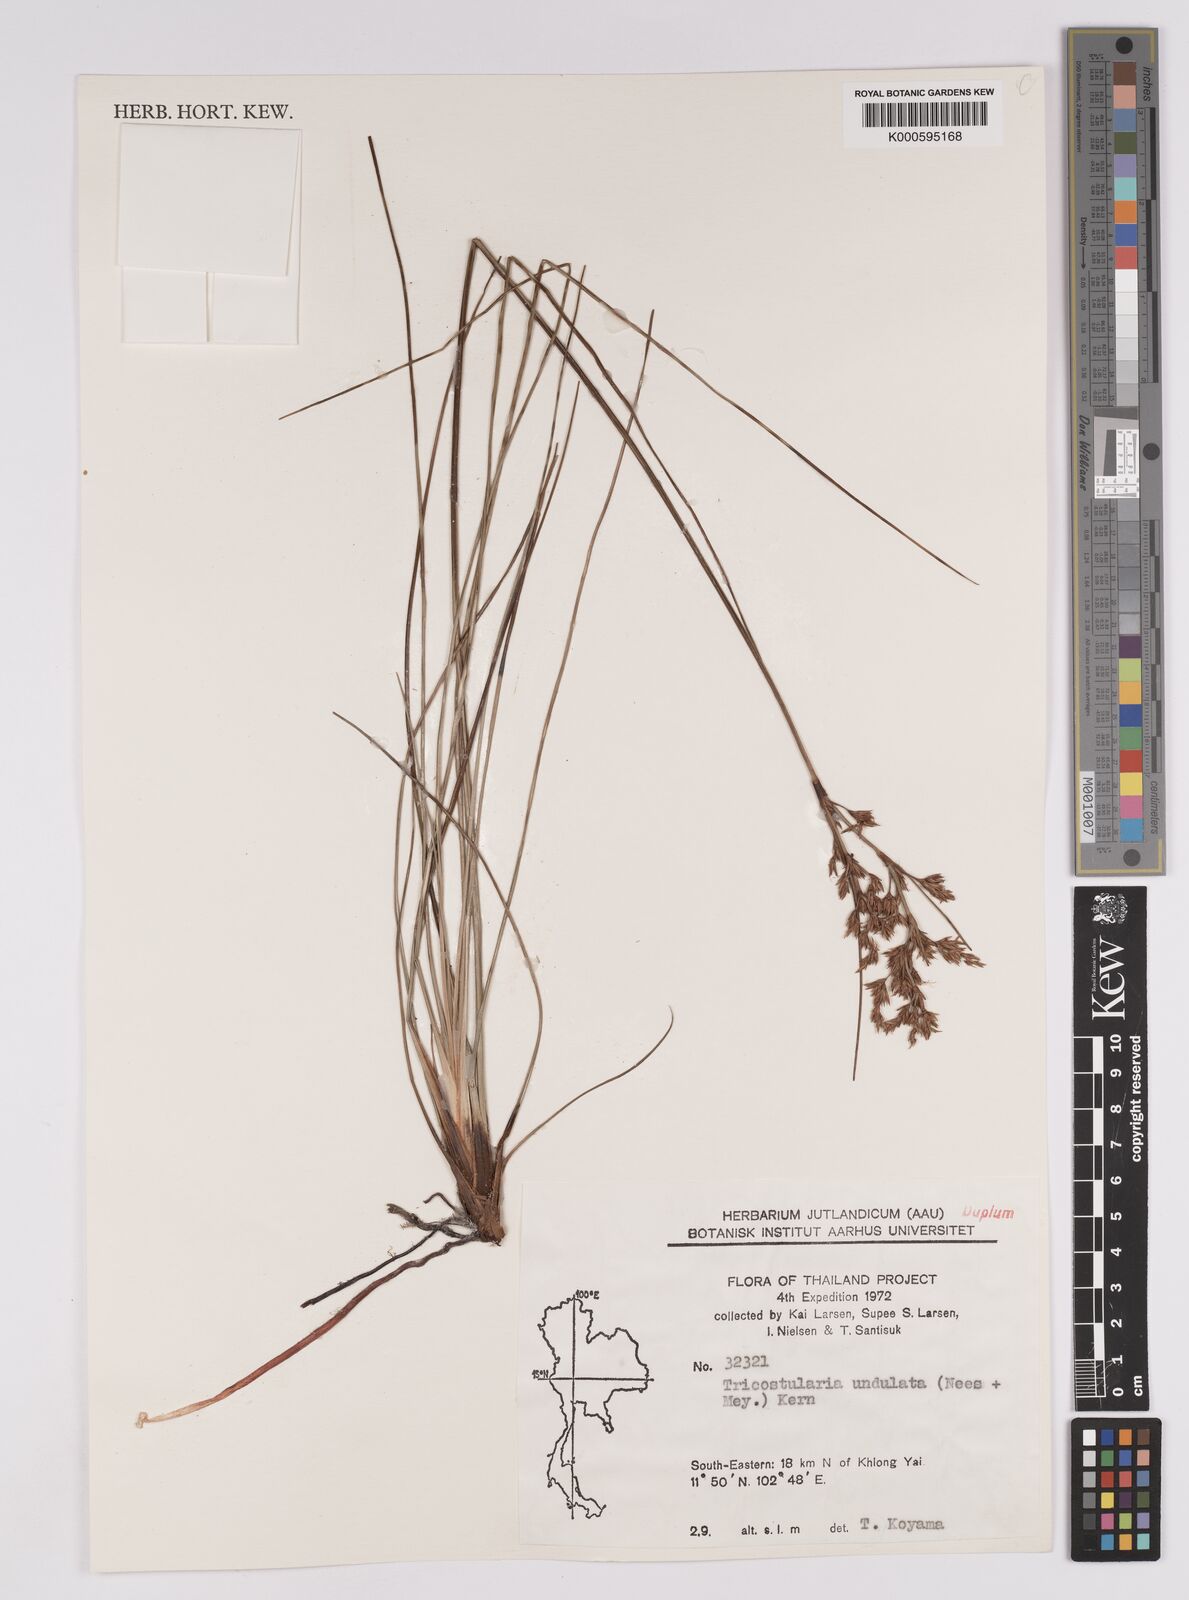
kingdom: Plantae
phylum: Tracheophyta
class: Liliopsida
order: Poales
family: Cyperaceae
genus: Anthelepis
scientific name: Anthelepis undulata
